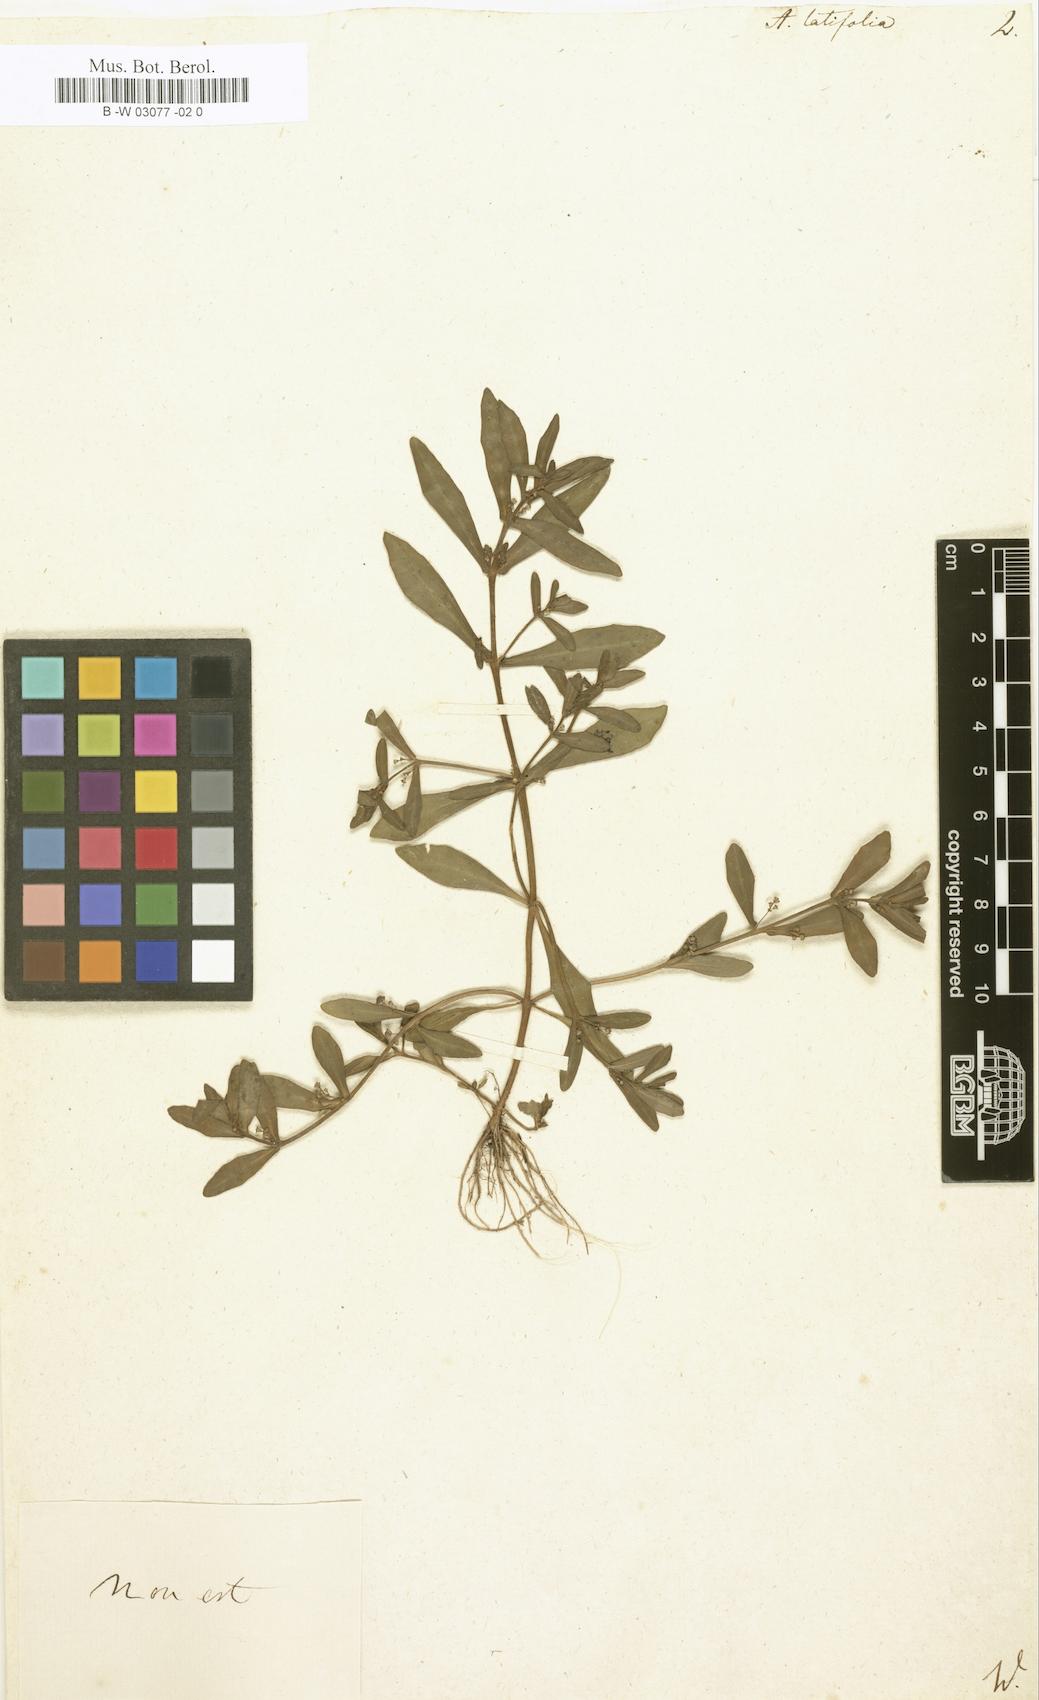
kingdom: Plantae
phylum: Tracheophyta
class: Magnoliopsida
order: Myrtales
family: Lythraceae
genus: Ammannia
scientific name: Ammannia latifolia
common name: Toothcup
